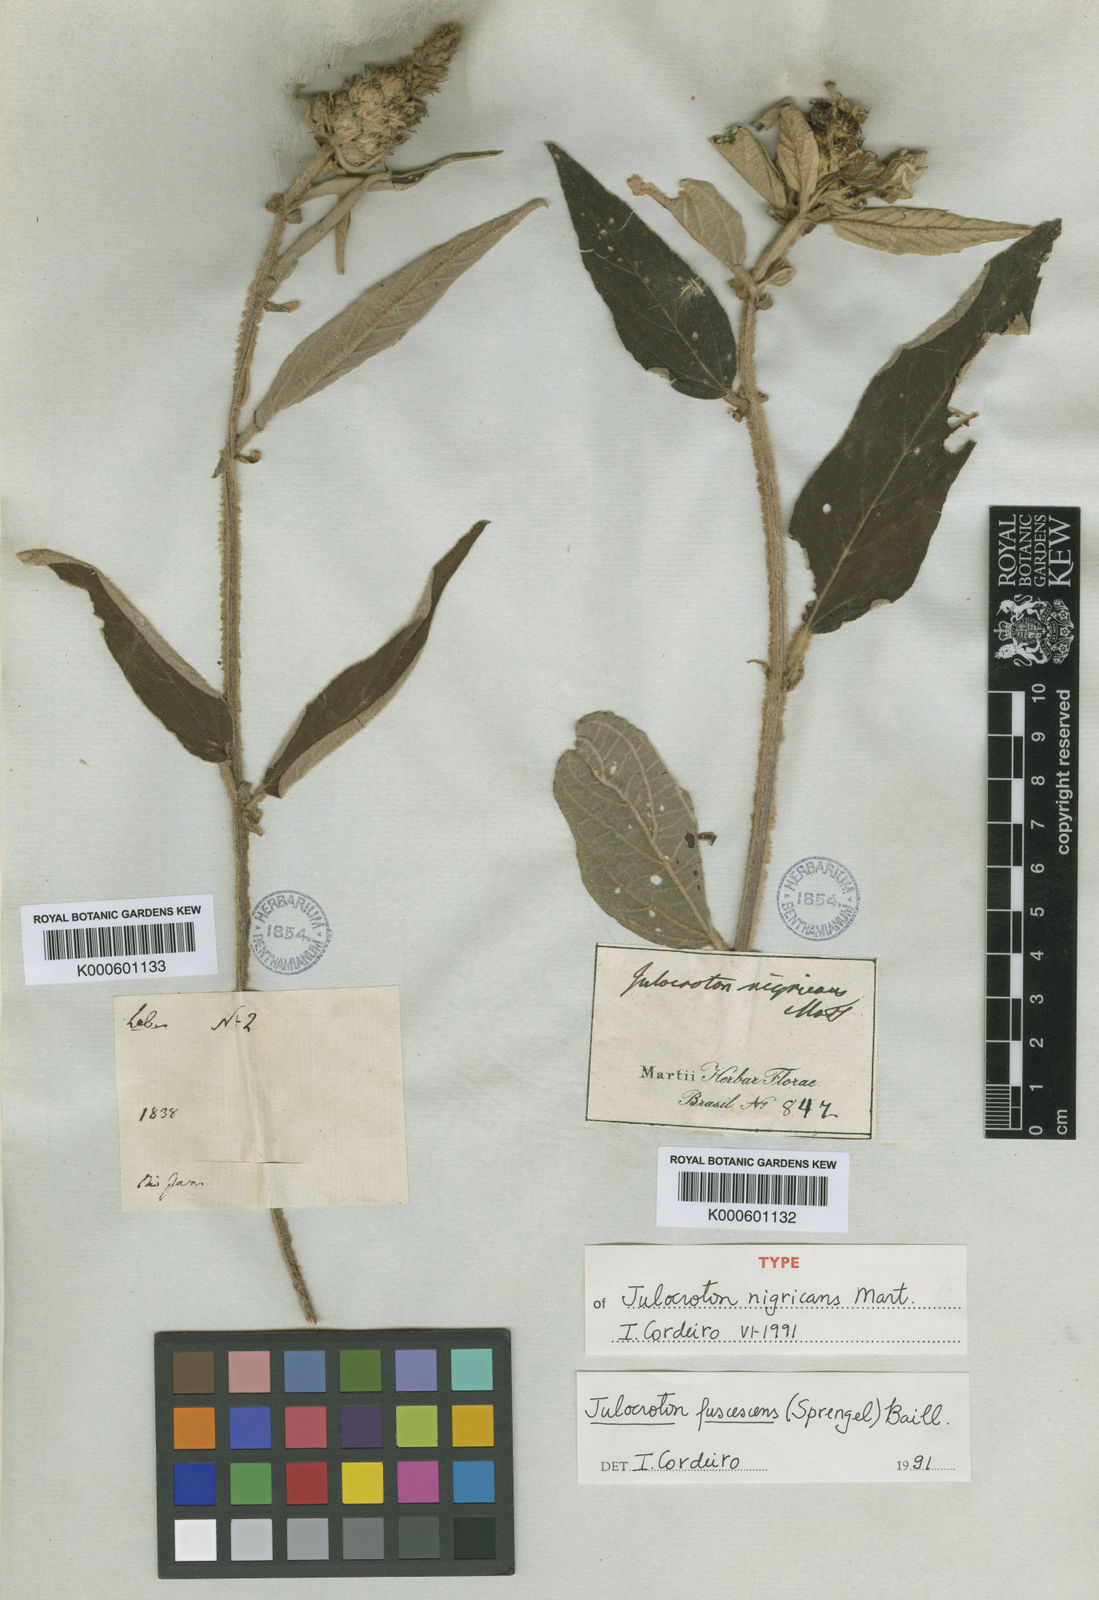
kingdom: Plantae
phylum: Tracheophyta
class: Magnoliopsida
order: Malpighiales
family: Euphorbiaceae
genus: Croton
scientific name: Croton gnaphaloides
